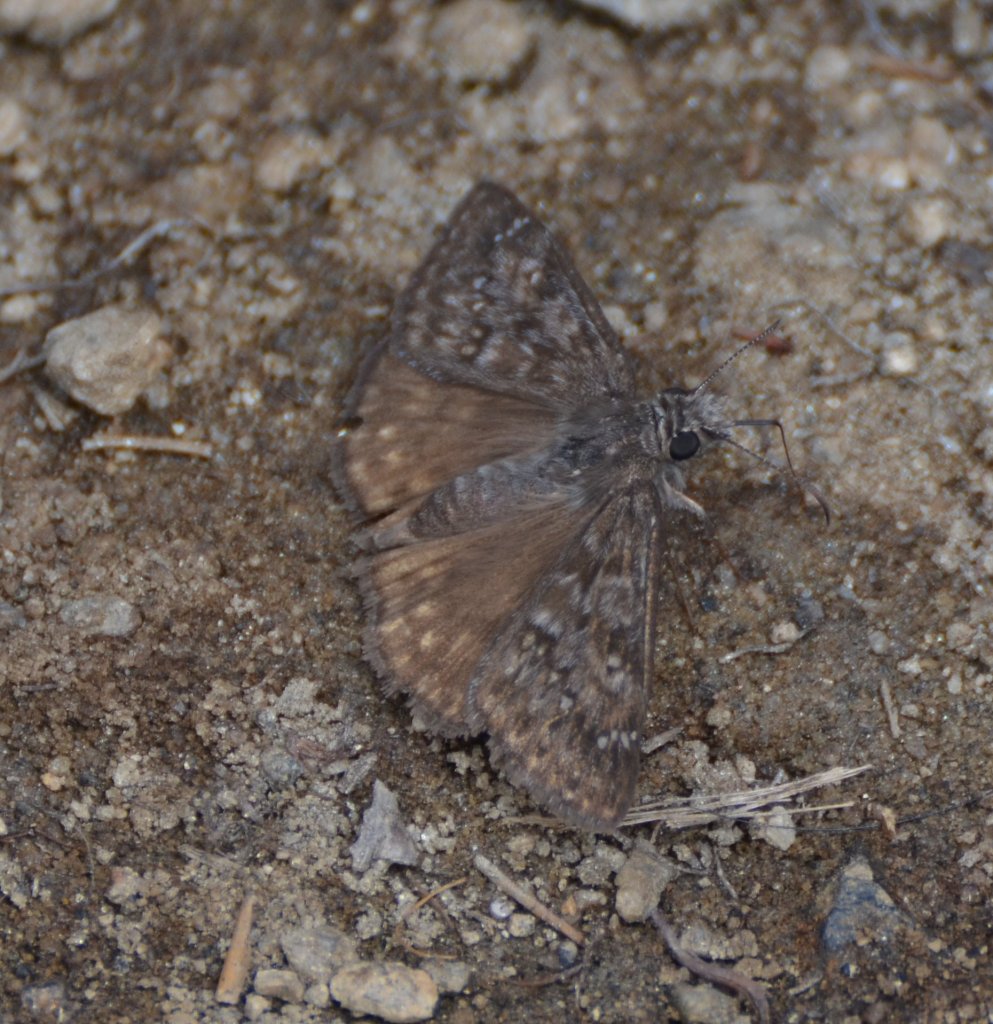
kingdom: Animalia
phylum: Arthropoda
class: Insecta
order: Lepidoptera
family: Hesperiidae
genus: Erynnis
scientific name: Erynnis propertius
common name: Propertius Duskywing
